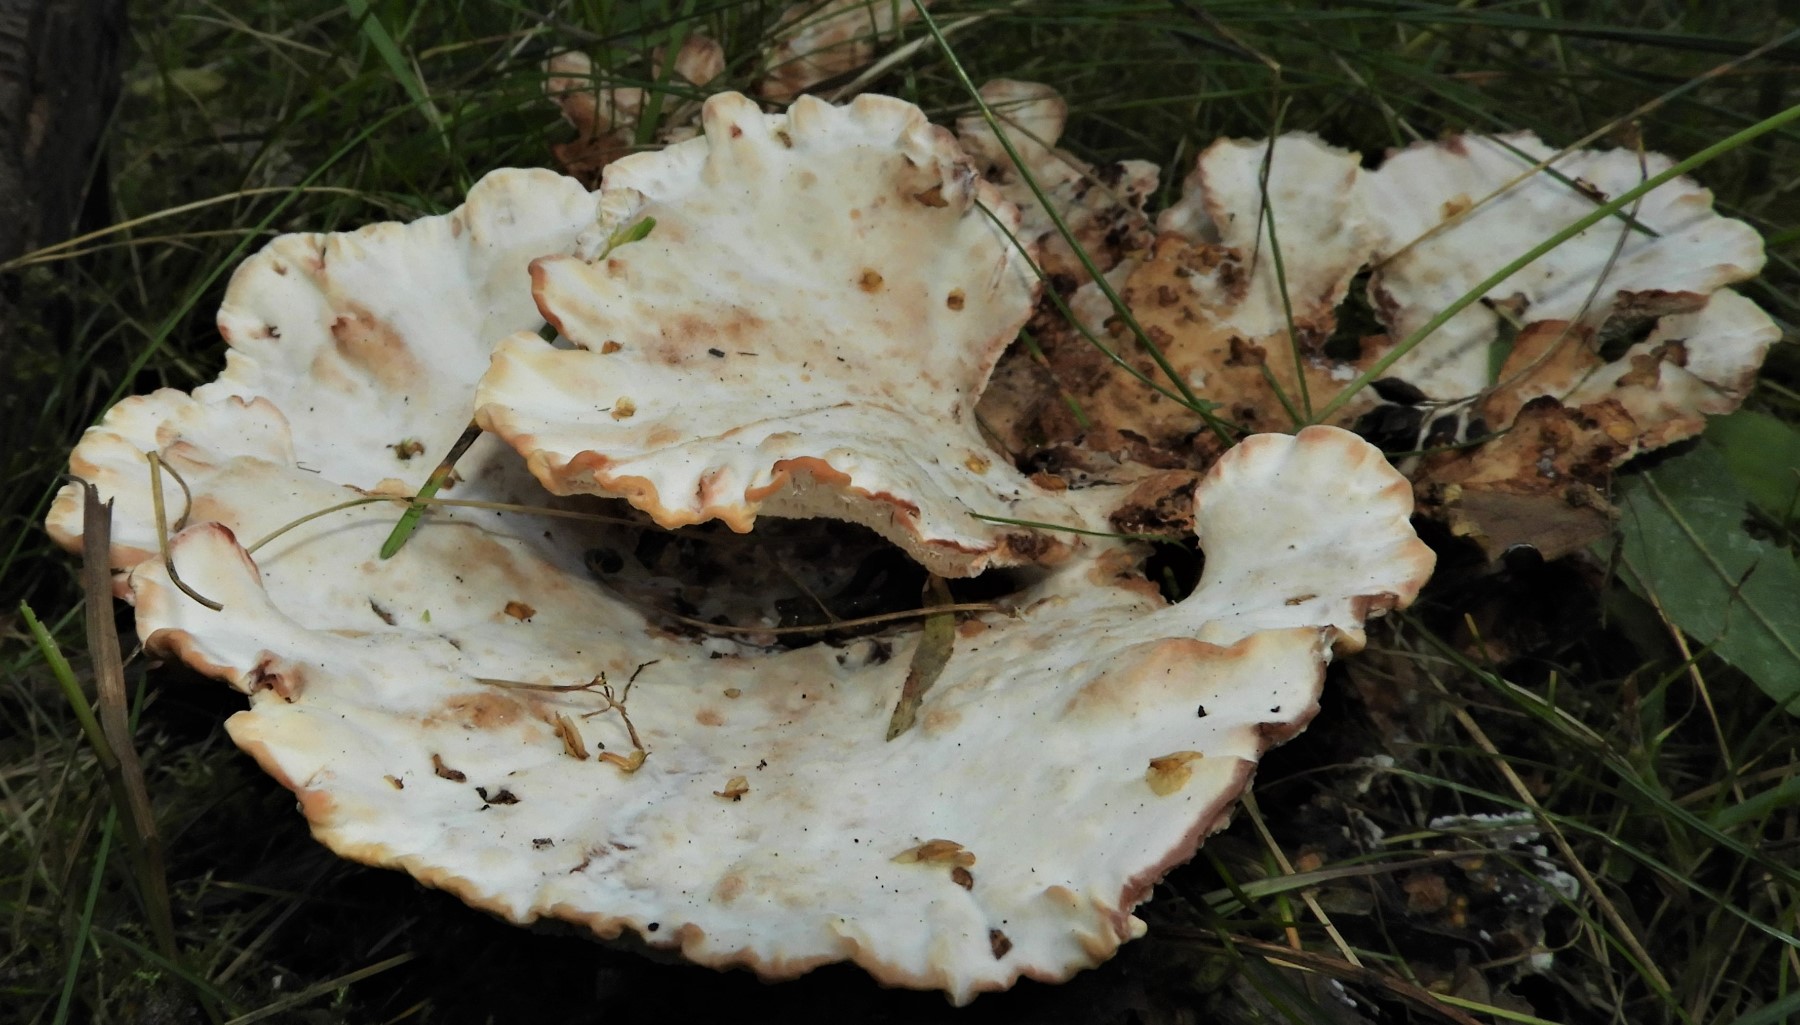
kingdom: Fungi
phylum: Basidiomycota
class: Agaricomycetes
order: Polyporales
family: Podoscyphaceae
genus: Abortiporus
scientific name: Abortiporus biennis
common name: rødmende pjalteporesvamp
